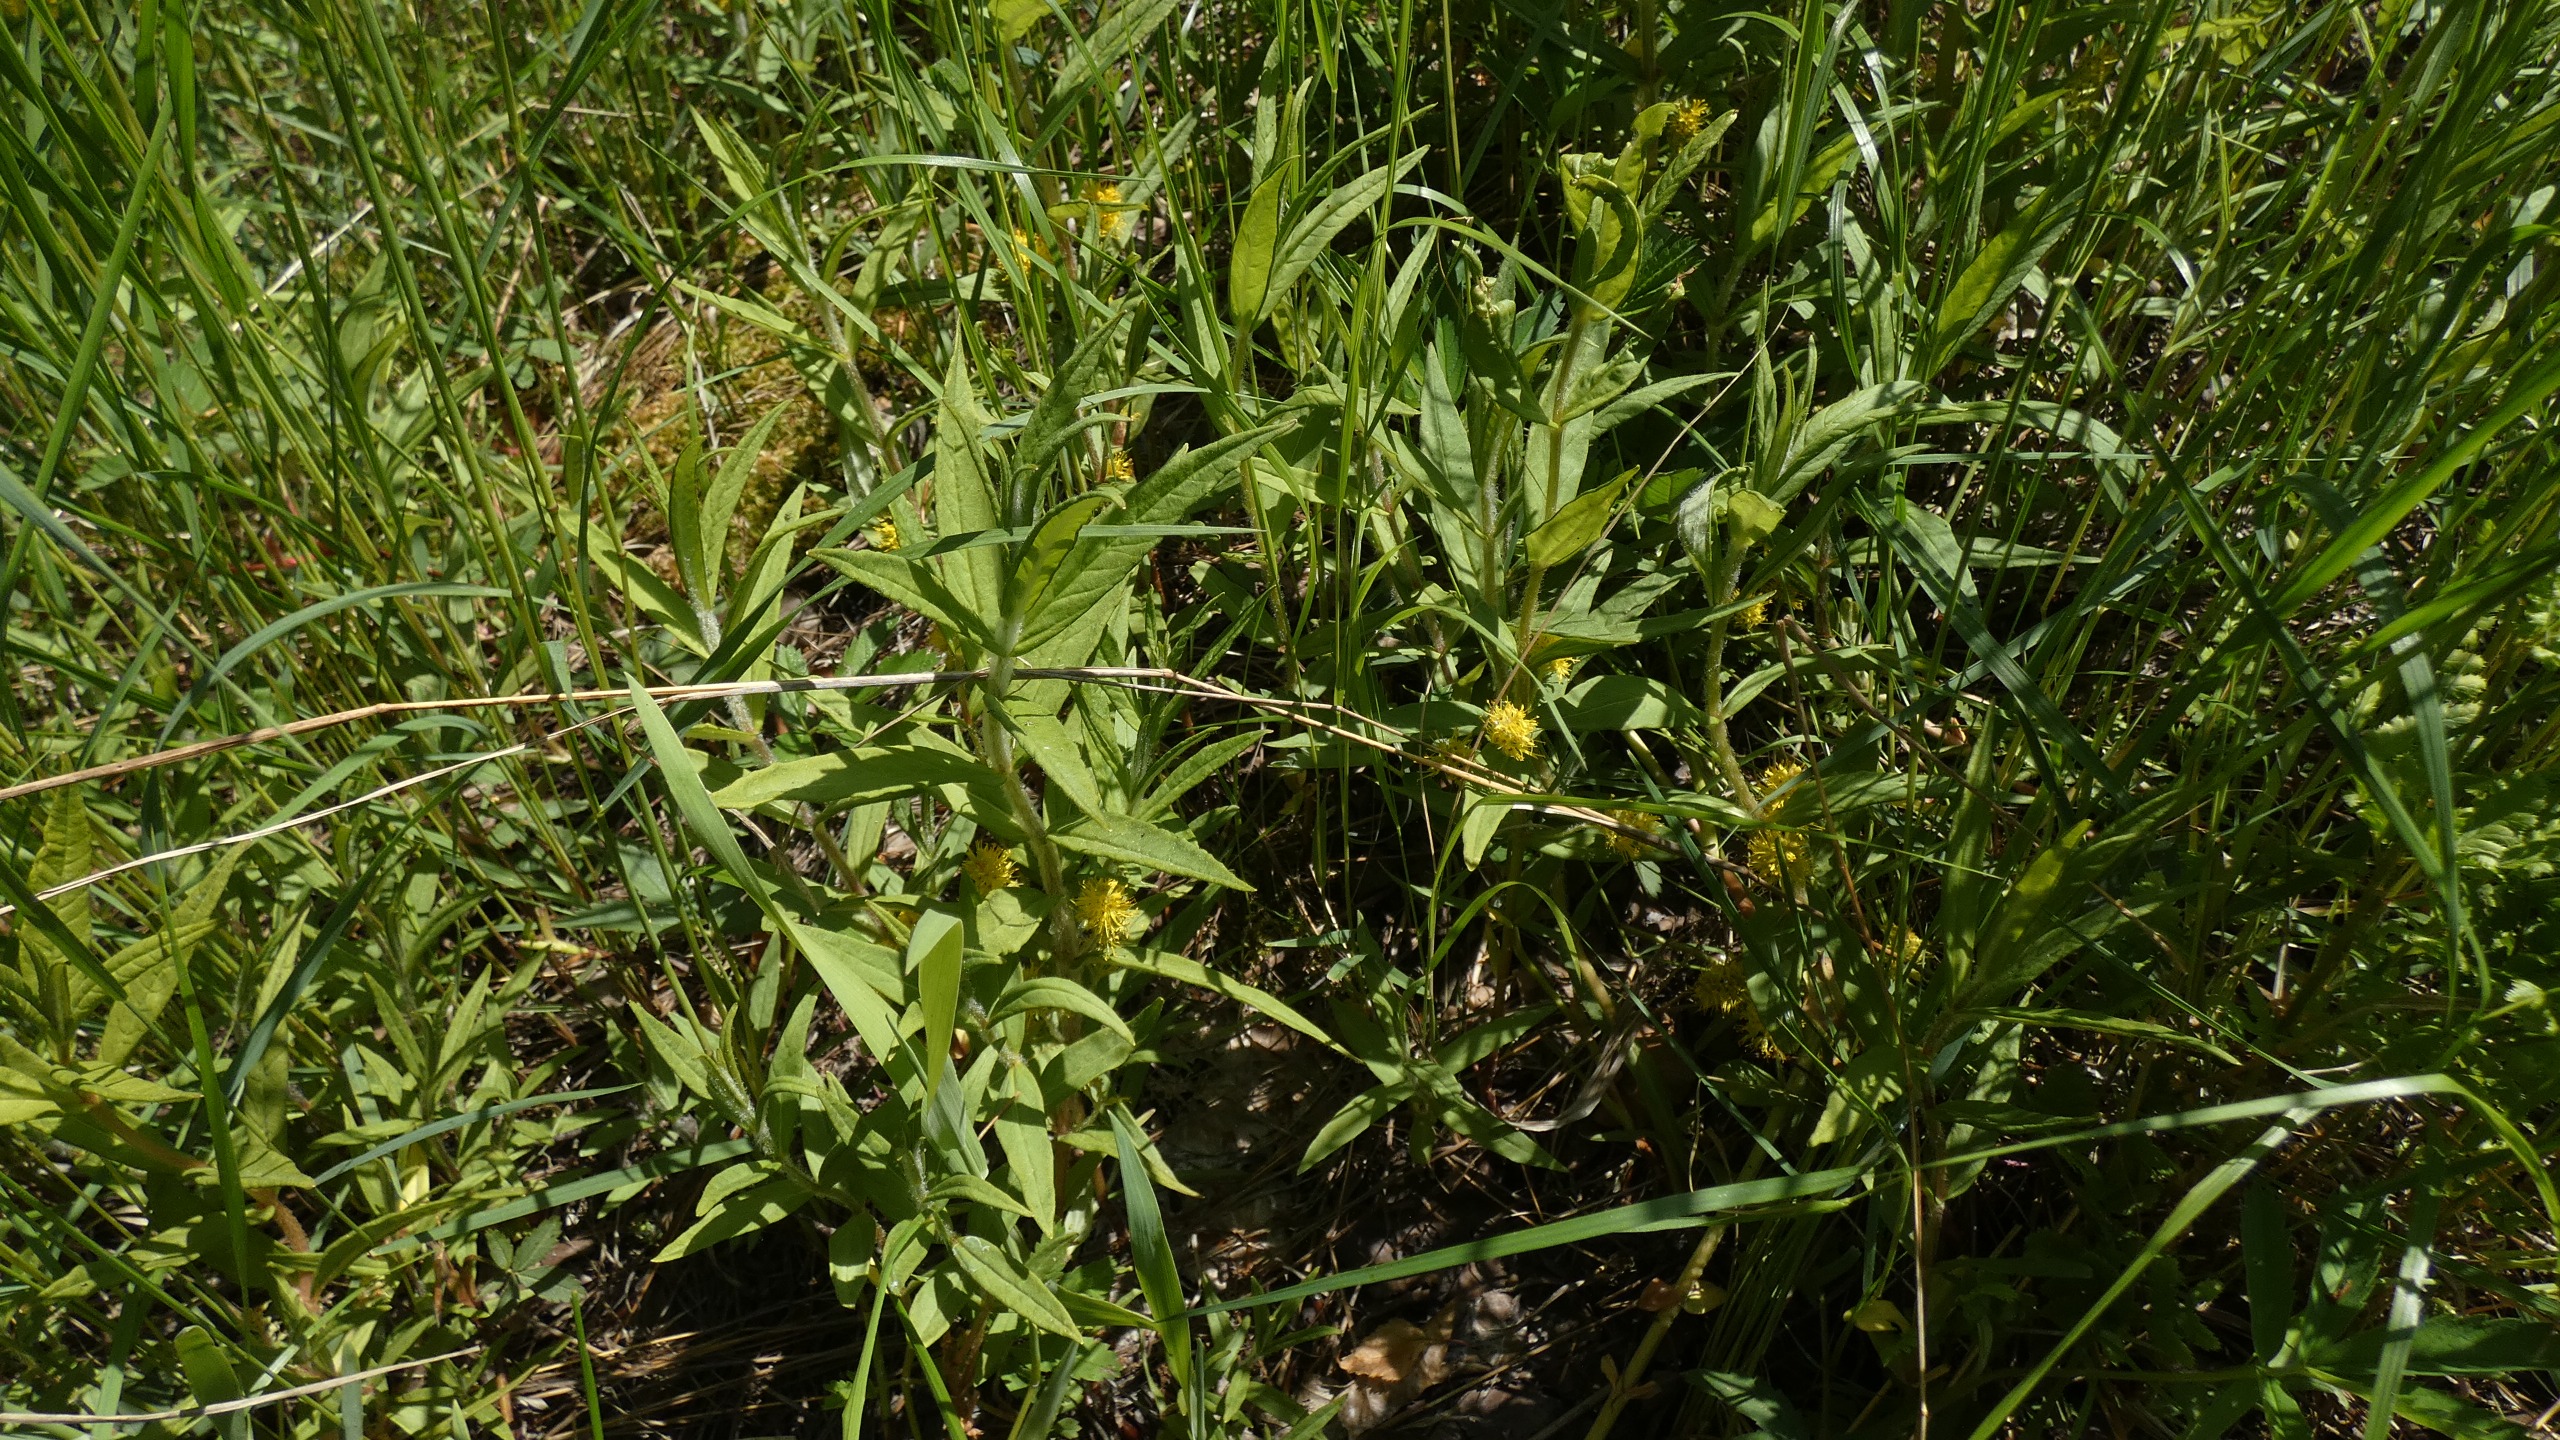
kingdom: Plantae
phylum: Tracheophyta
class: Magnoliopsida
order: Ericales
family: Primulaceae
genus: Lysimachia
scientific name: Lysimachia thyrsiflora
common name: Dusk-fredløs
